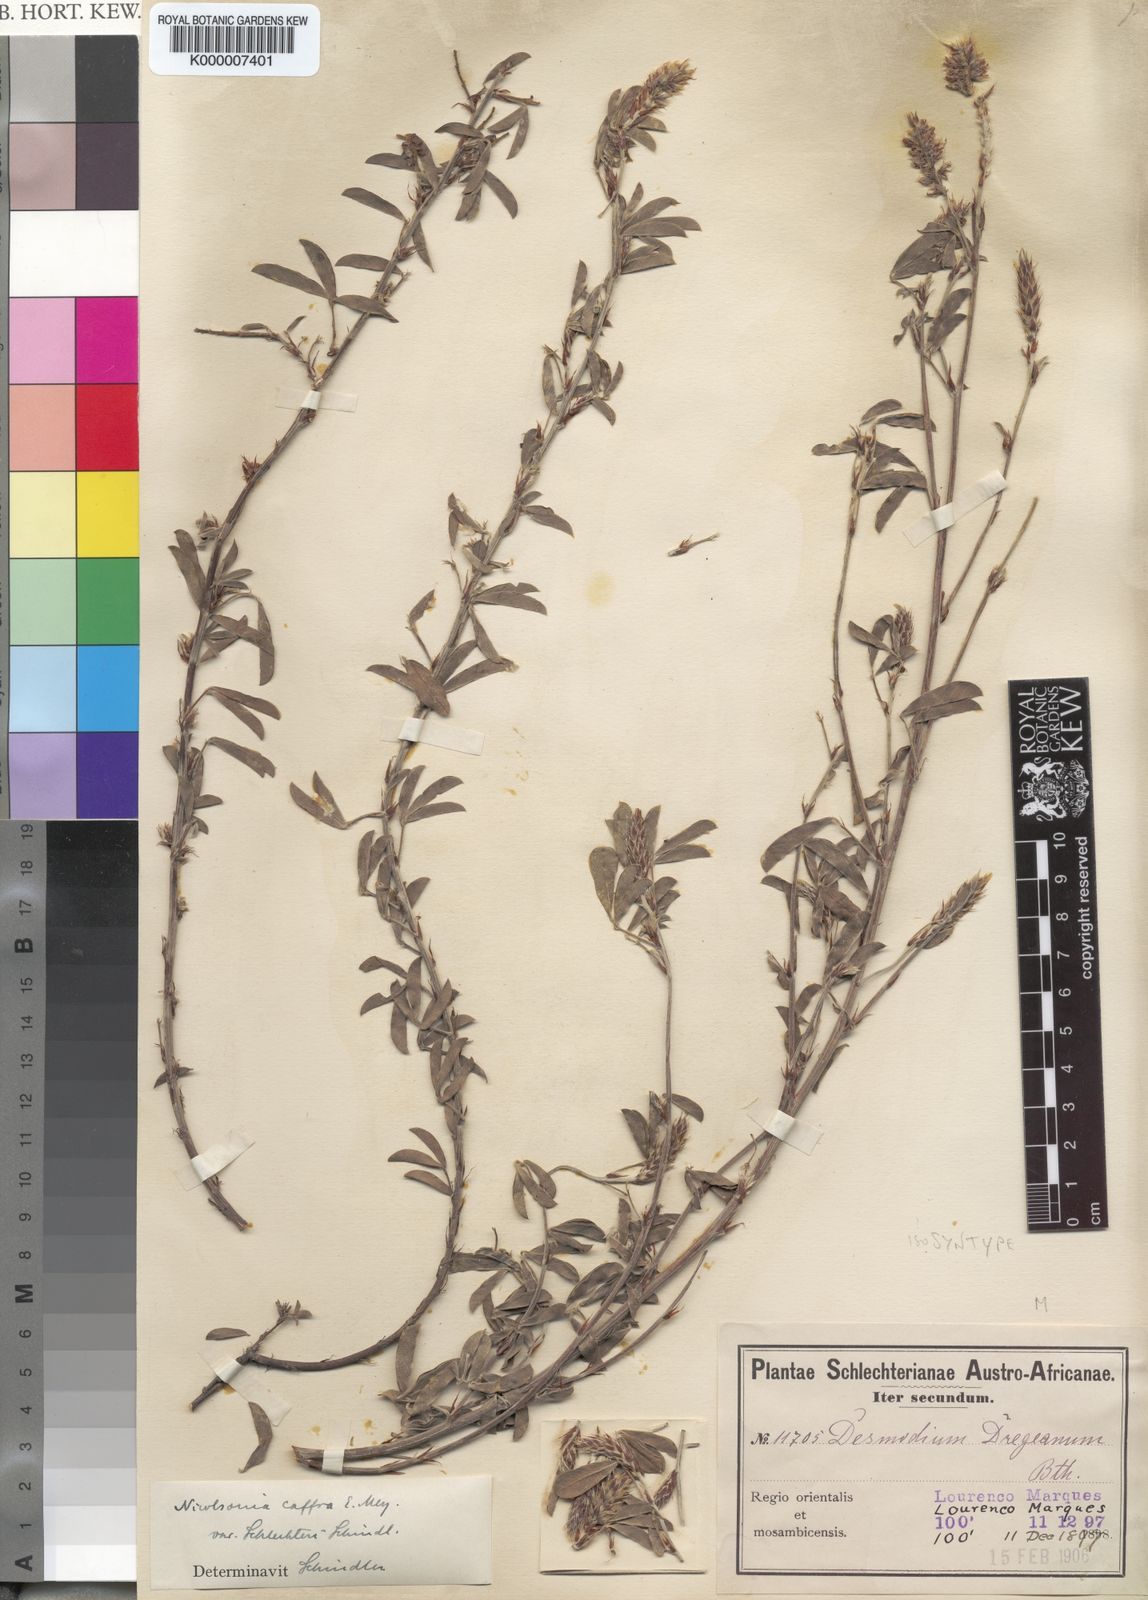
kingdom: Plantae
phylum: Tracheophyta
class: Magnoliopsida
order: Fabales
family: Fabaceae
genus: Grona
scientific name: Grona caffra
